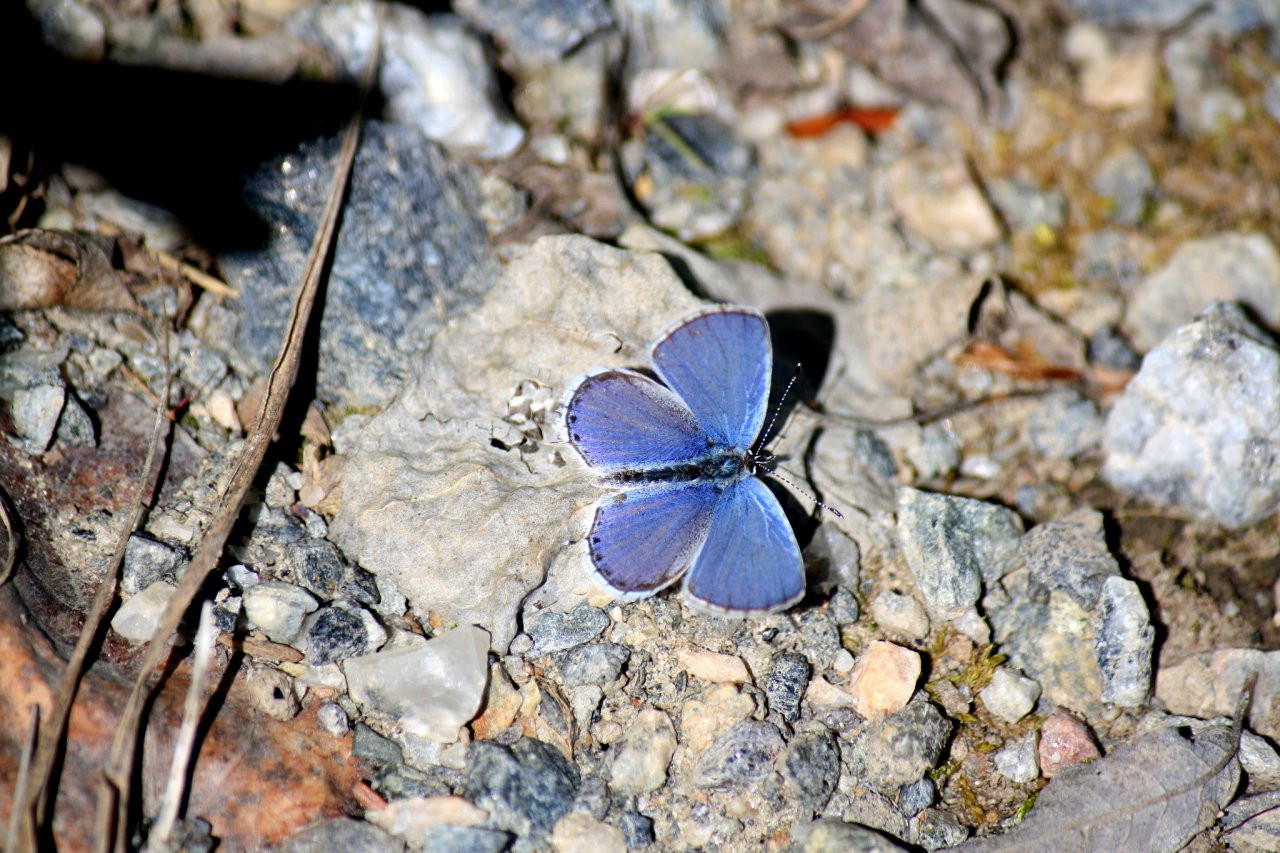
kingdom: Animalia
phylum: Arthropoda
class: Insecta
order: Lepidoptera
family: Lycaenidae
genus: Elkalyce
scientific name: Elkalyce amyntula
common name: Western Tailed-Blue
